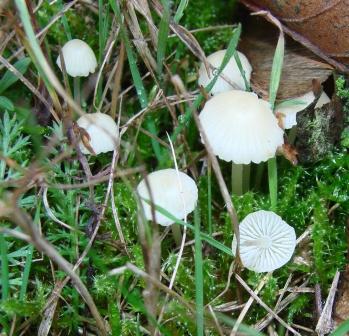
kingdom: Fungi
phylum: Basidiomycota
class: Agaricomycetes
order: Agaricales
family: Mycenaceae
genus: Atheniella
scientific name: Atheniella flavoalba
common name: gulhvid huesvamp
